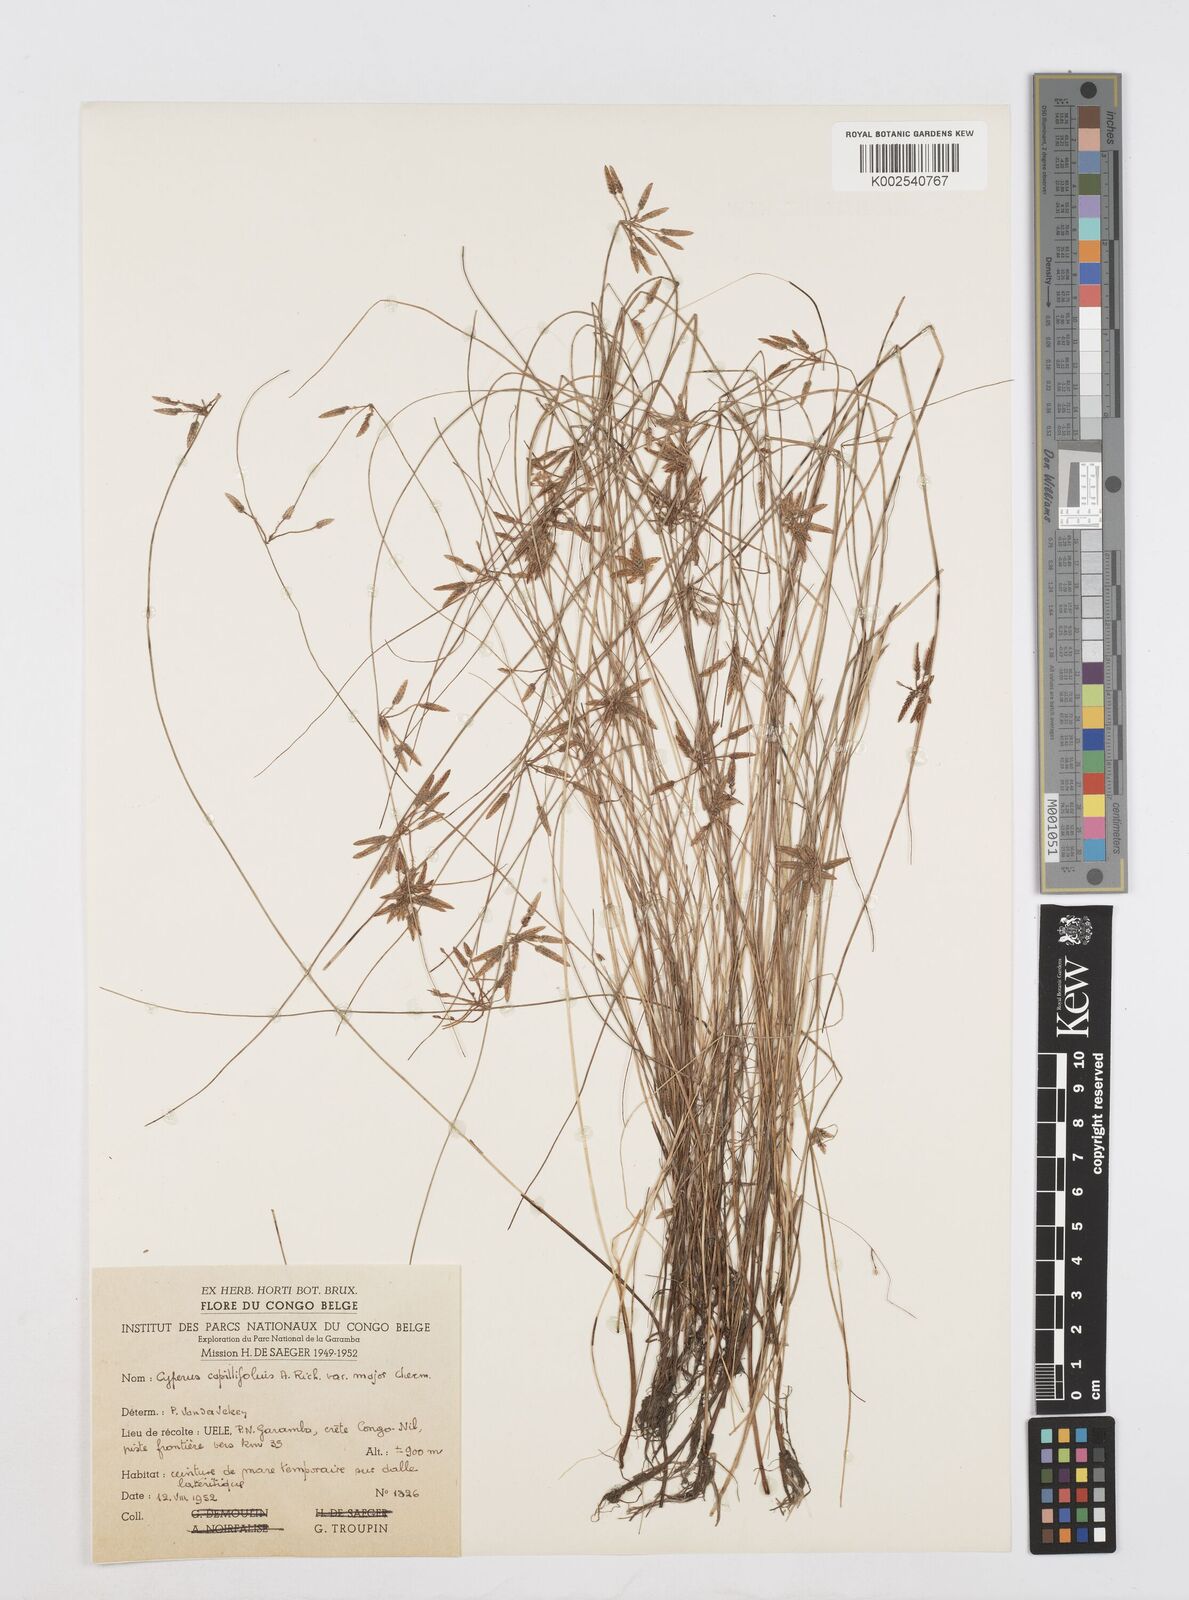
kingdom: Plantae
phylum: Tracheophyta
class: Liliopsida
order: Poales
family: Cyperaceae
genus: Cyperus
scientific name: Cyperus capillifolius
